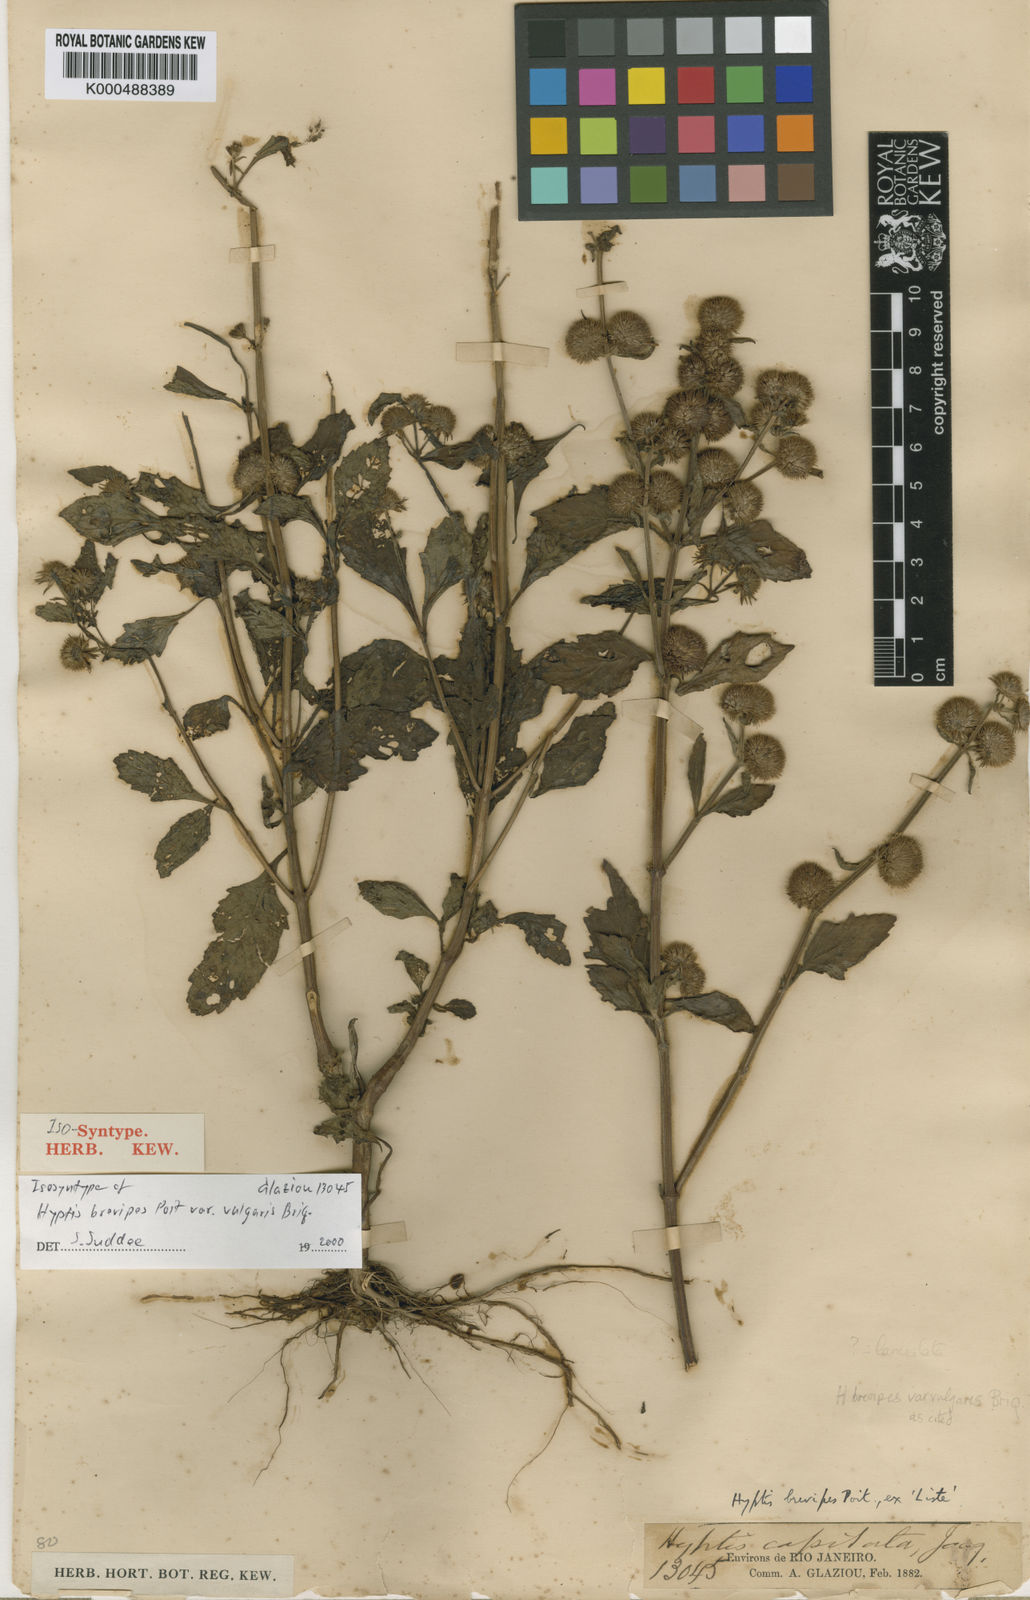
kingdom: Plantae
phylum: Tracheophyta
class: Magnoliopsida
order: Lamiales
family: Lamiaceae
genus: Hyptis
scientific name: Hyptis lanceolata
